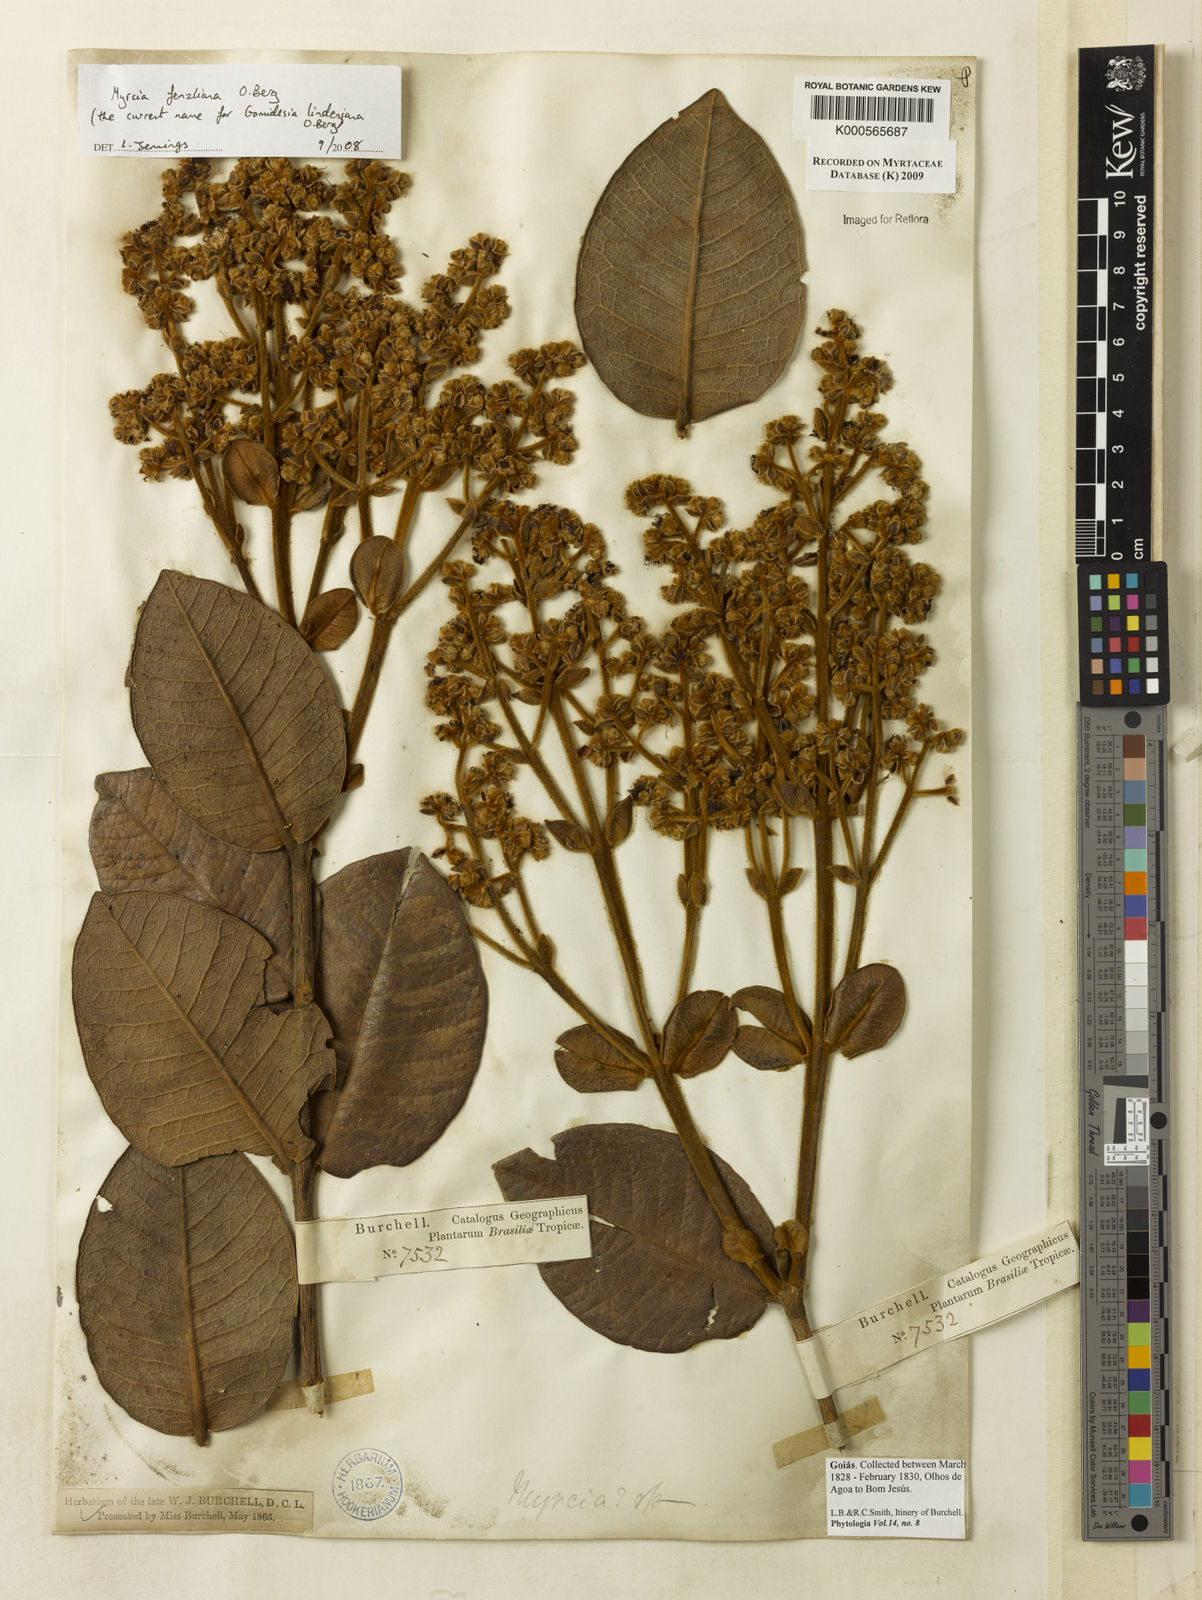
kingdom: Plantae
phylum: Tracheophyta
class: Magnoliopsida
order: Myrtales
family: Myrtaceae
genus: Myrcia
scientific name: Myrcia fenzliana
